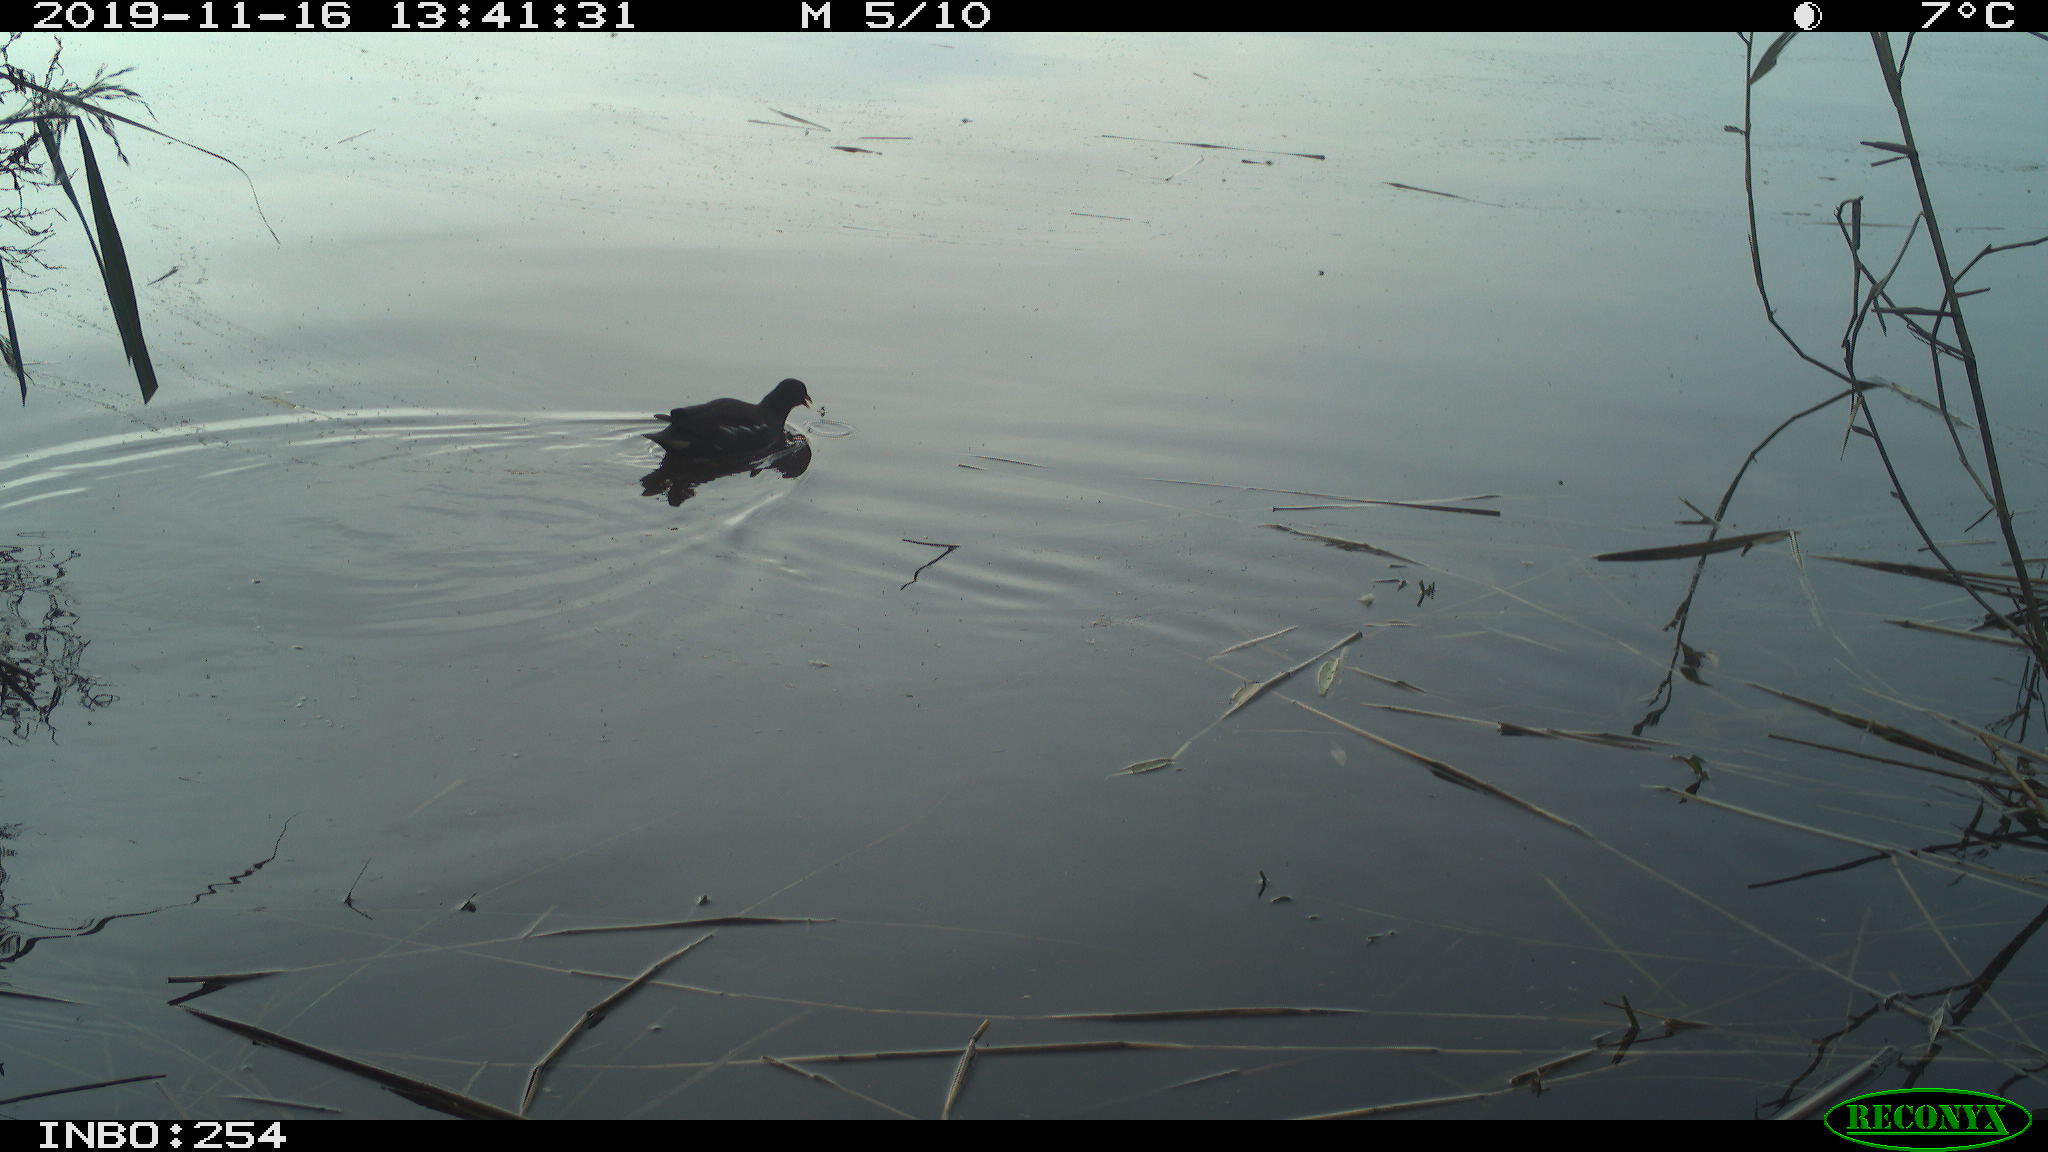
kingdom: Animalia
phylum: Chordata
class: Aves
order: Gruiformes
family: Rallidae
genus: Gallinula
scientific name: Gallinula chloropus
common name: Common moorhen
